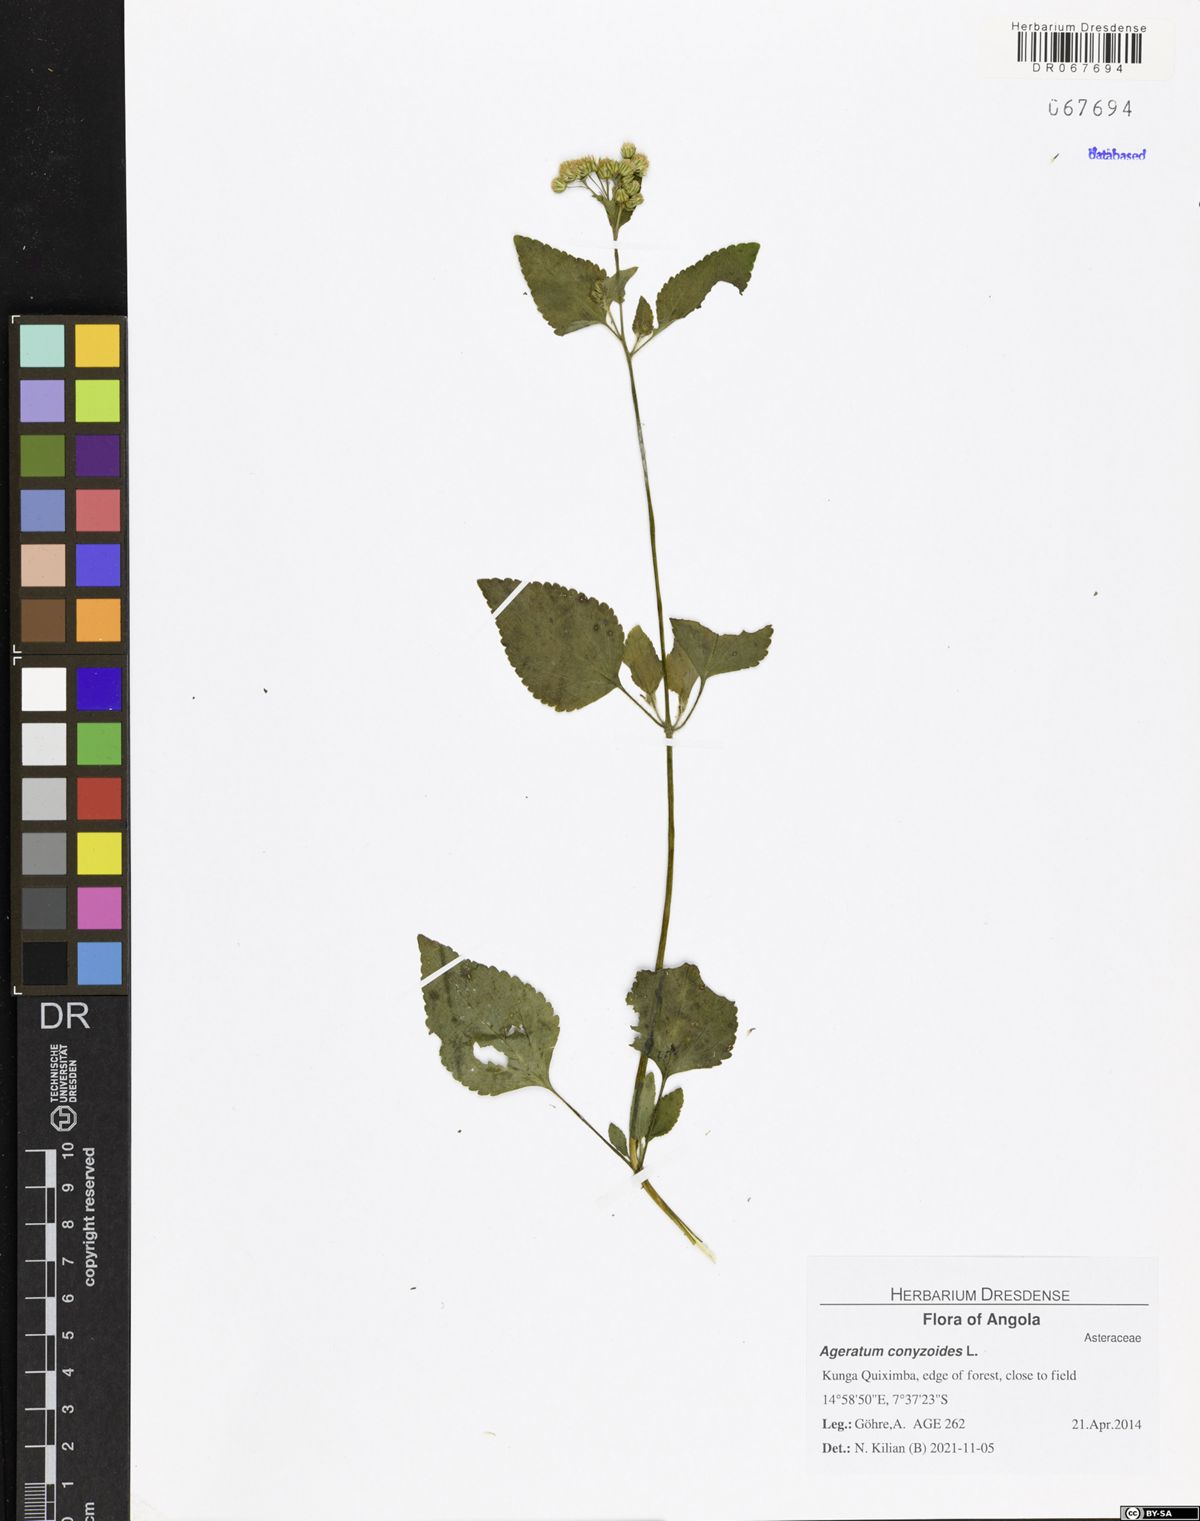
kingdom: Plantae
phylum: Tracheophyta
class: Magnoliopsida
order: Asterales
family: Asteraceae
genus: Ageratum
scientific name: Ageratum conyzoides
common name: Tropical whiteweed
